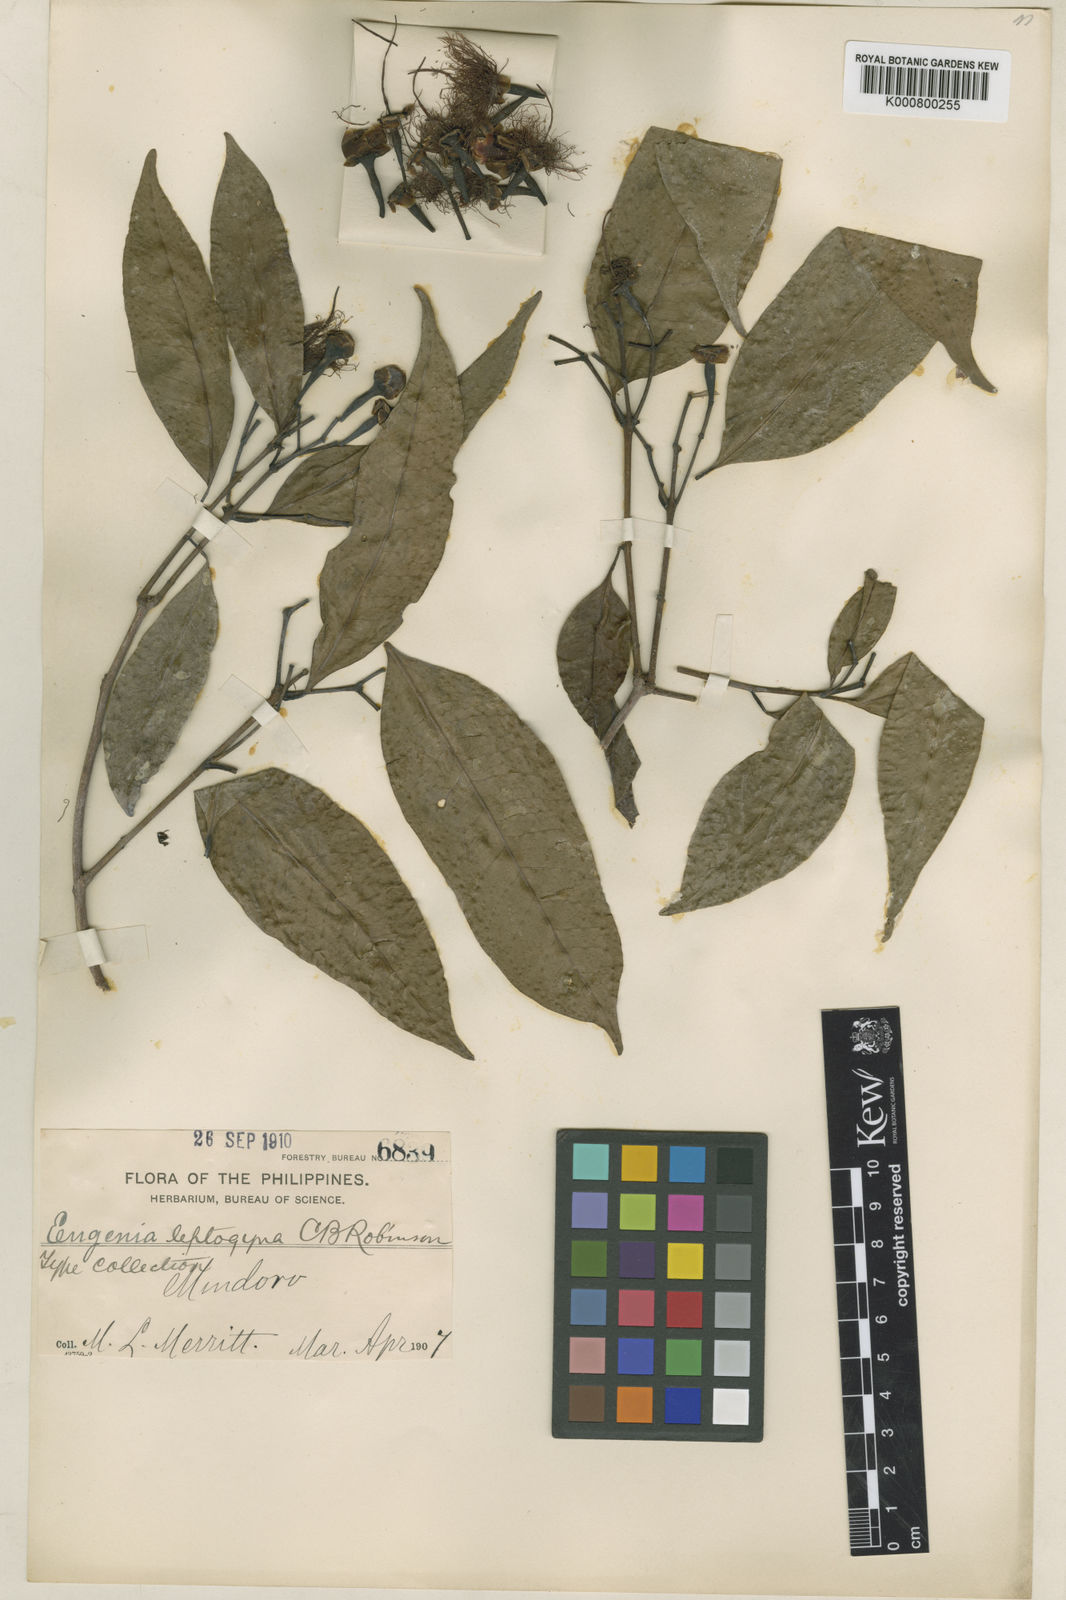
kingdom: Plantae
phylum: Tracheophyta
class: Magnoliopsida
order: Myrtales
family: Myrtaceae
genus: Syzygium
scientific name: Syzygium
